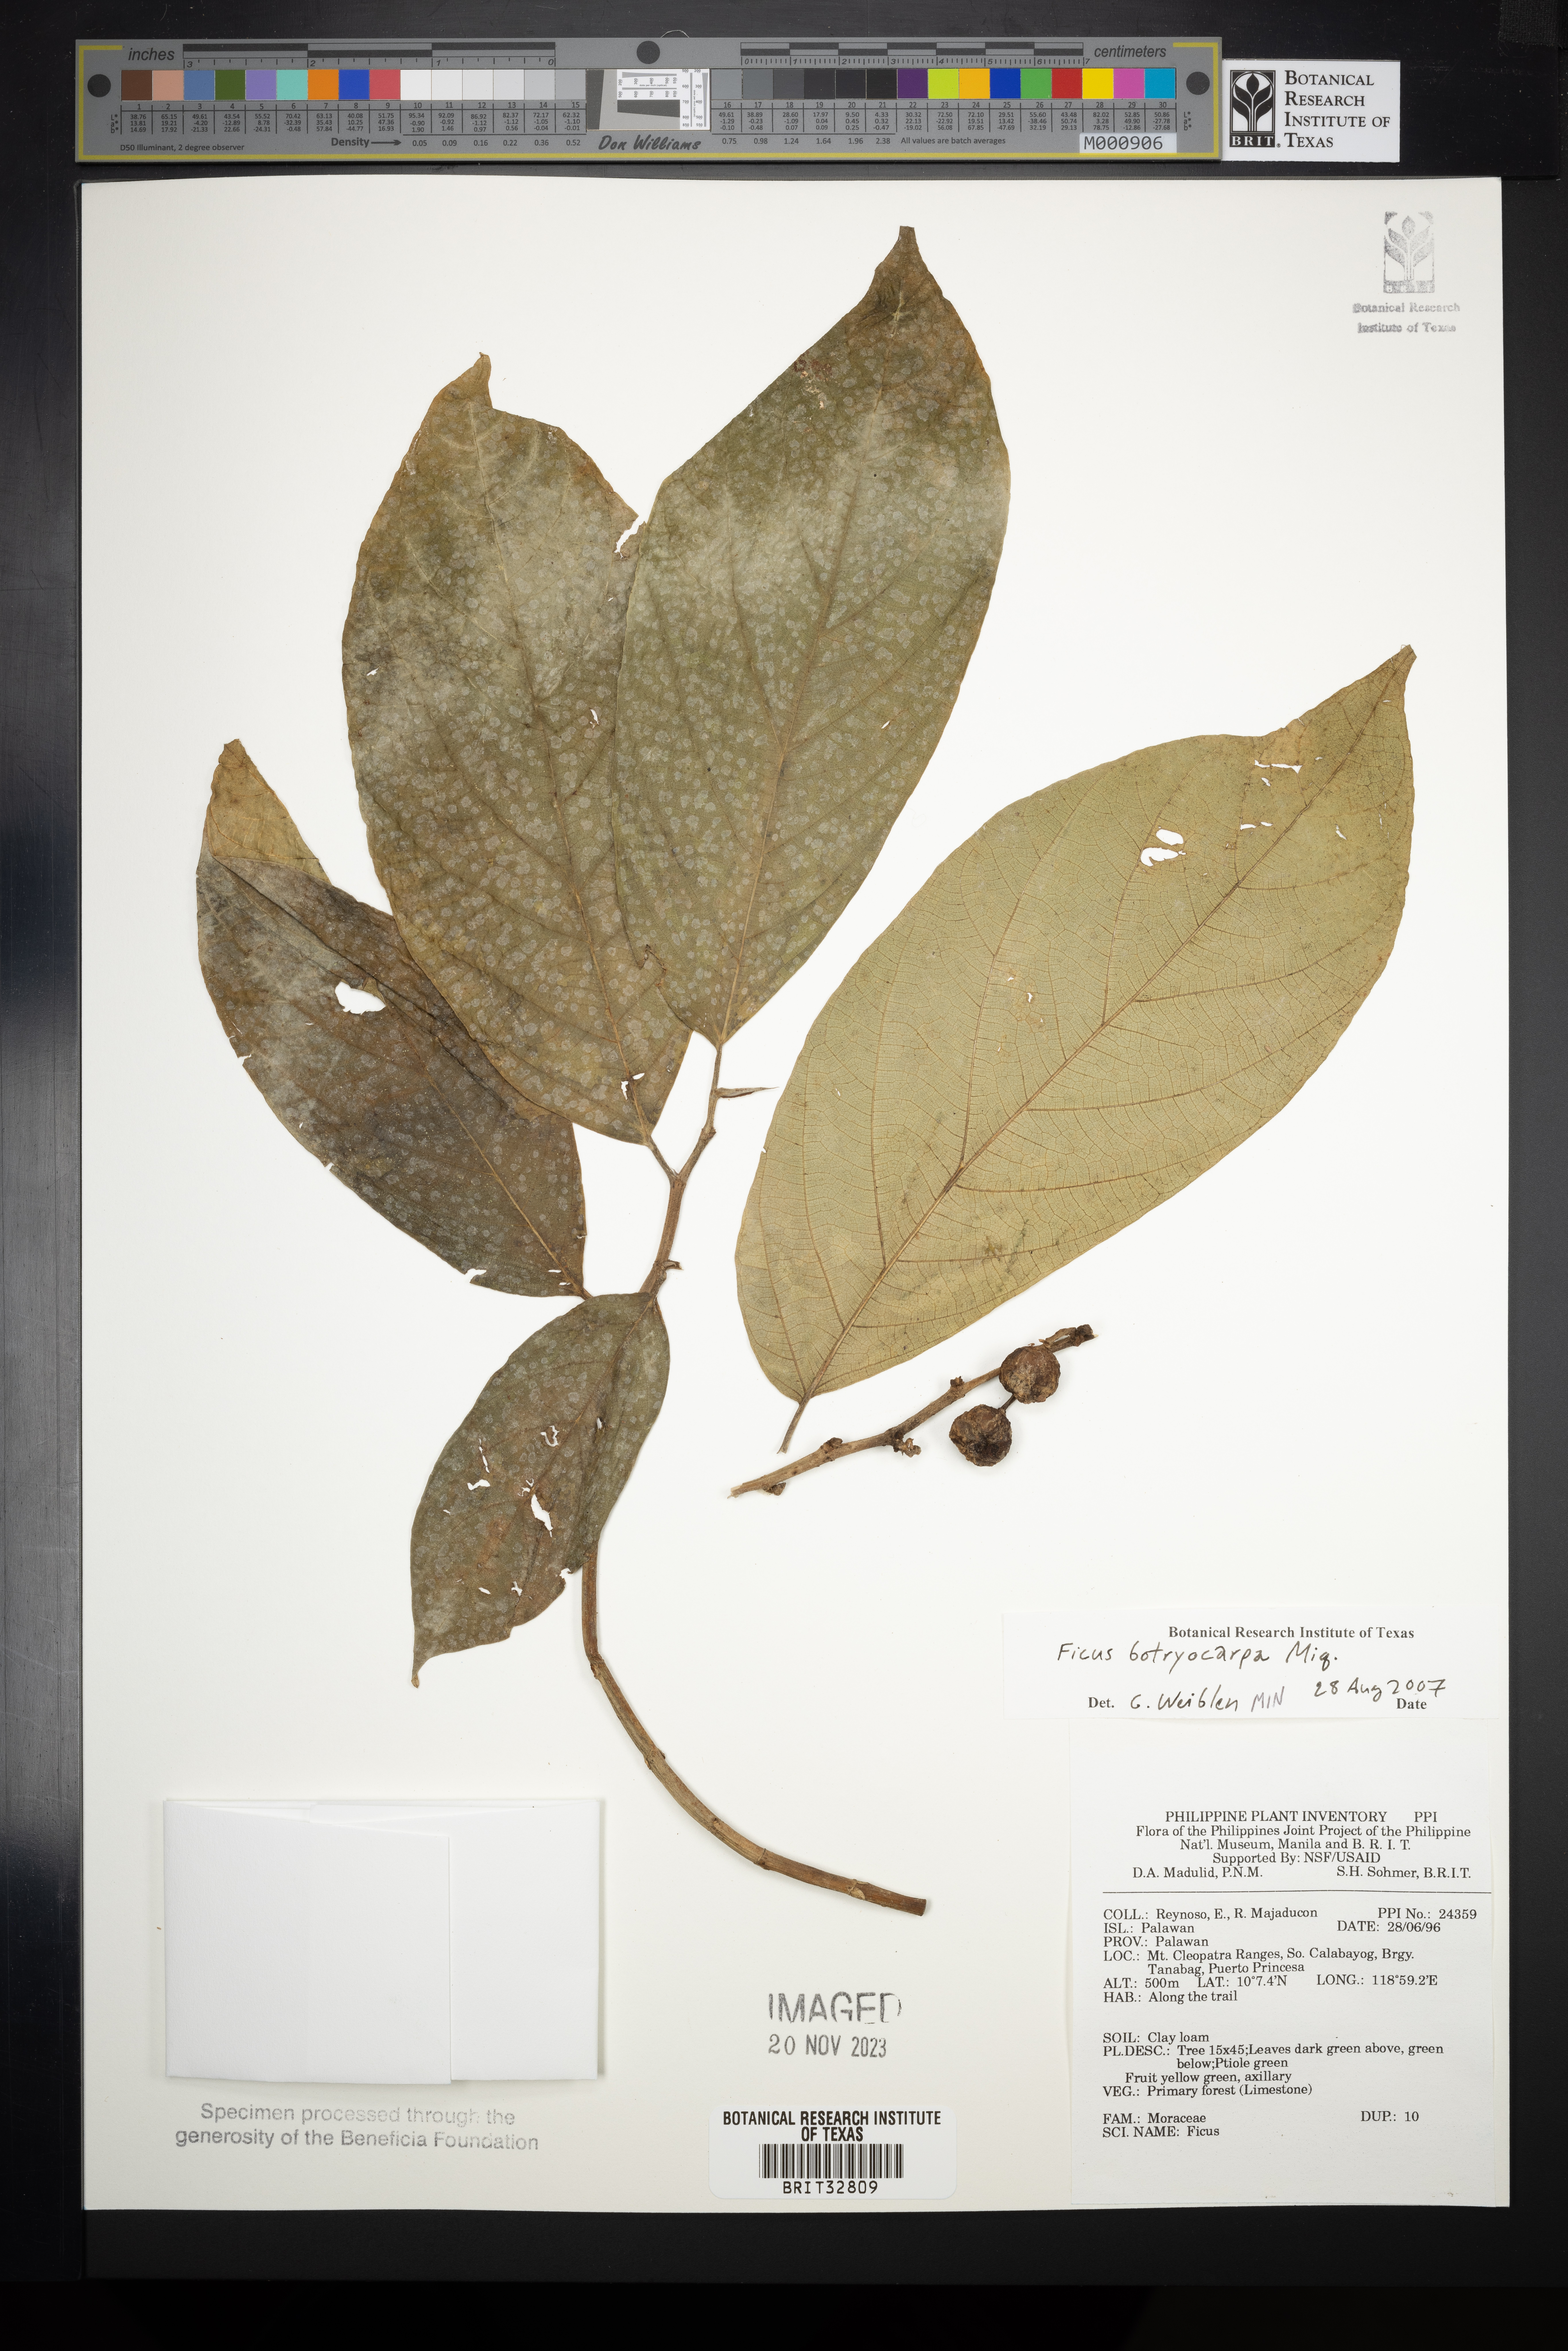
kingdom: Plantae
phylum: Tracheophyta
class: Magnoliopsida
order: Rosales
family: Moraceae
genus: Ficus
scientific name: Ficus botryocarpa
